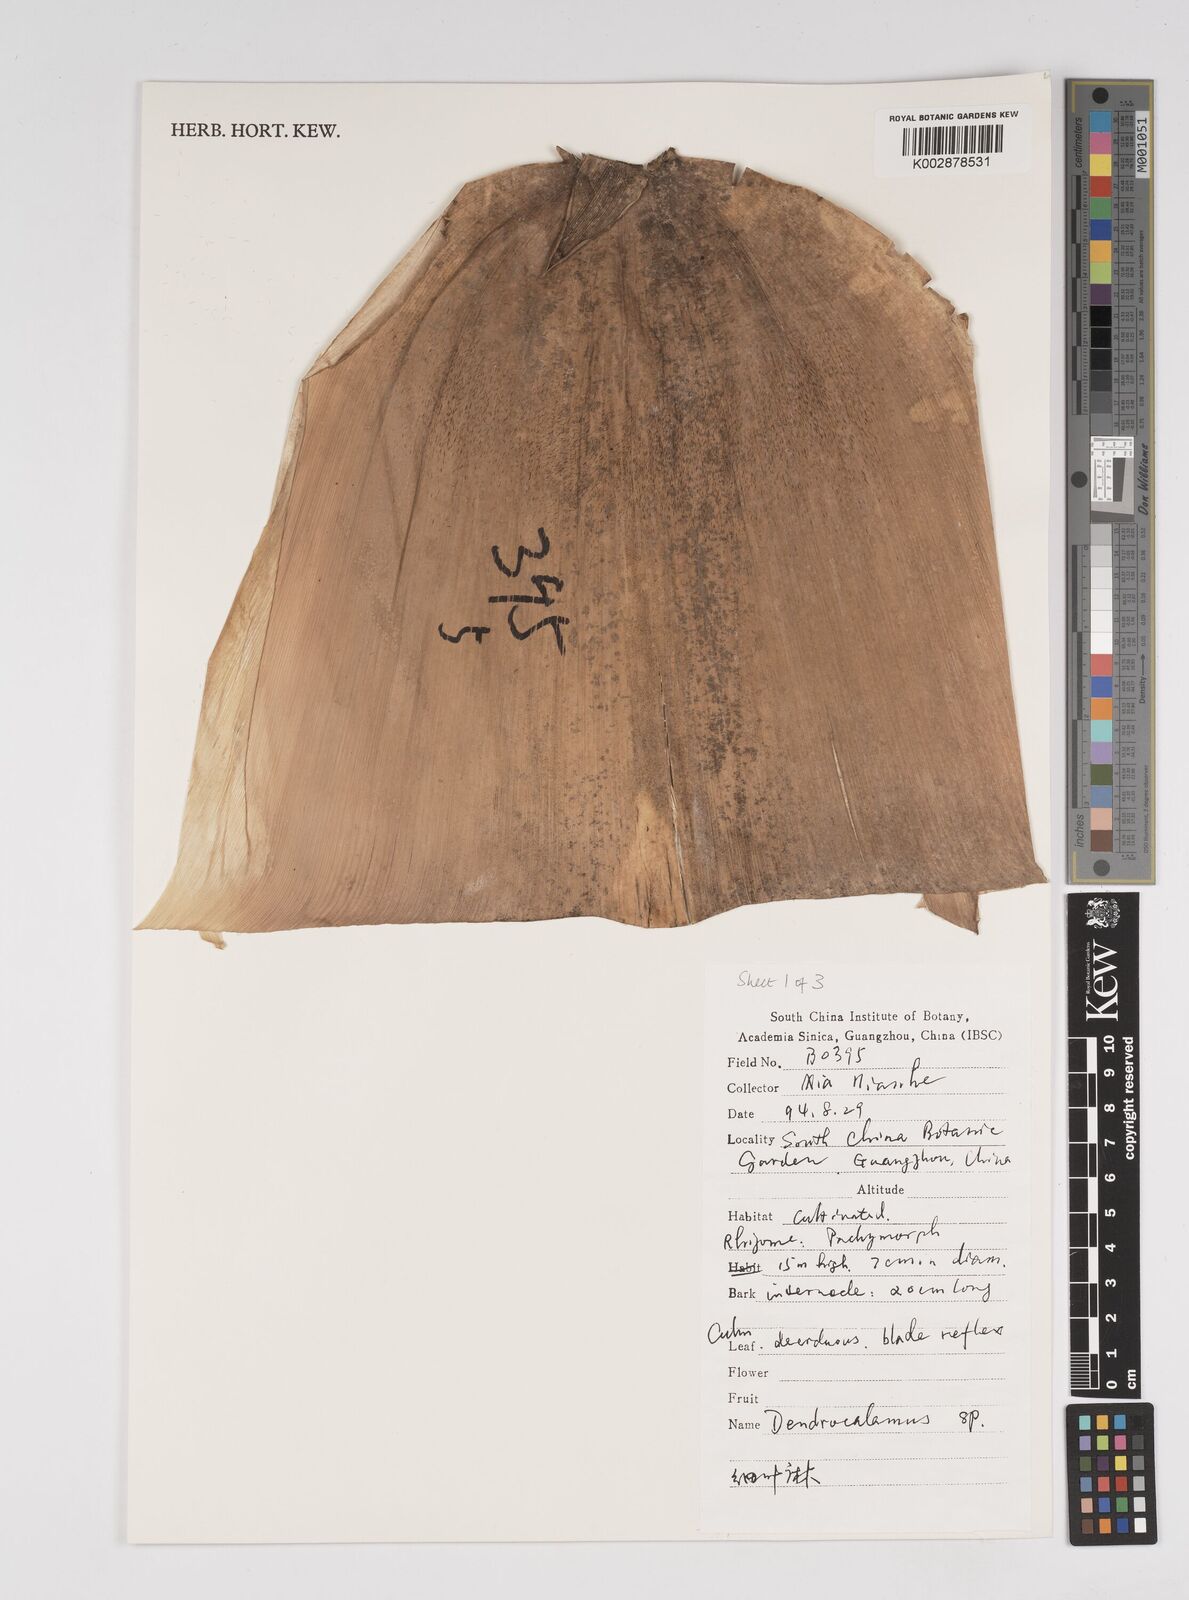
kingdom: Plantae
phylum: Tracheophyta
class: Liliopsida
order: Poales
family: Poaceae
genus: Dendrocalamus
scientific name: Dendrocalamus
